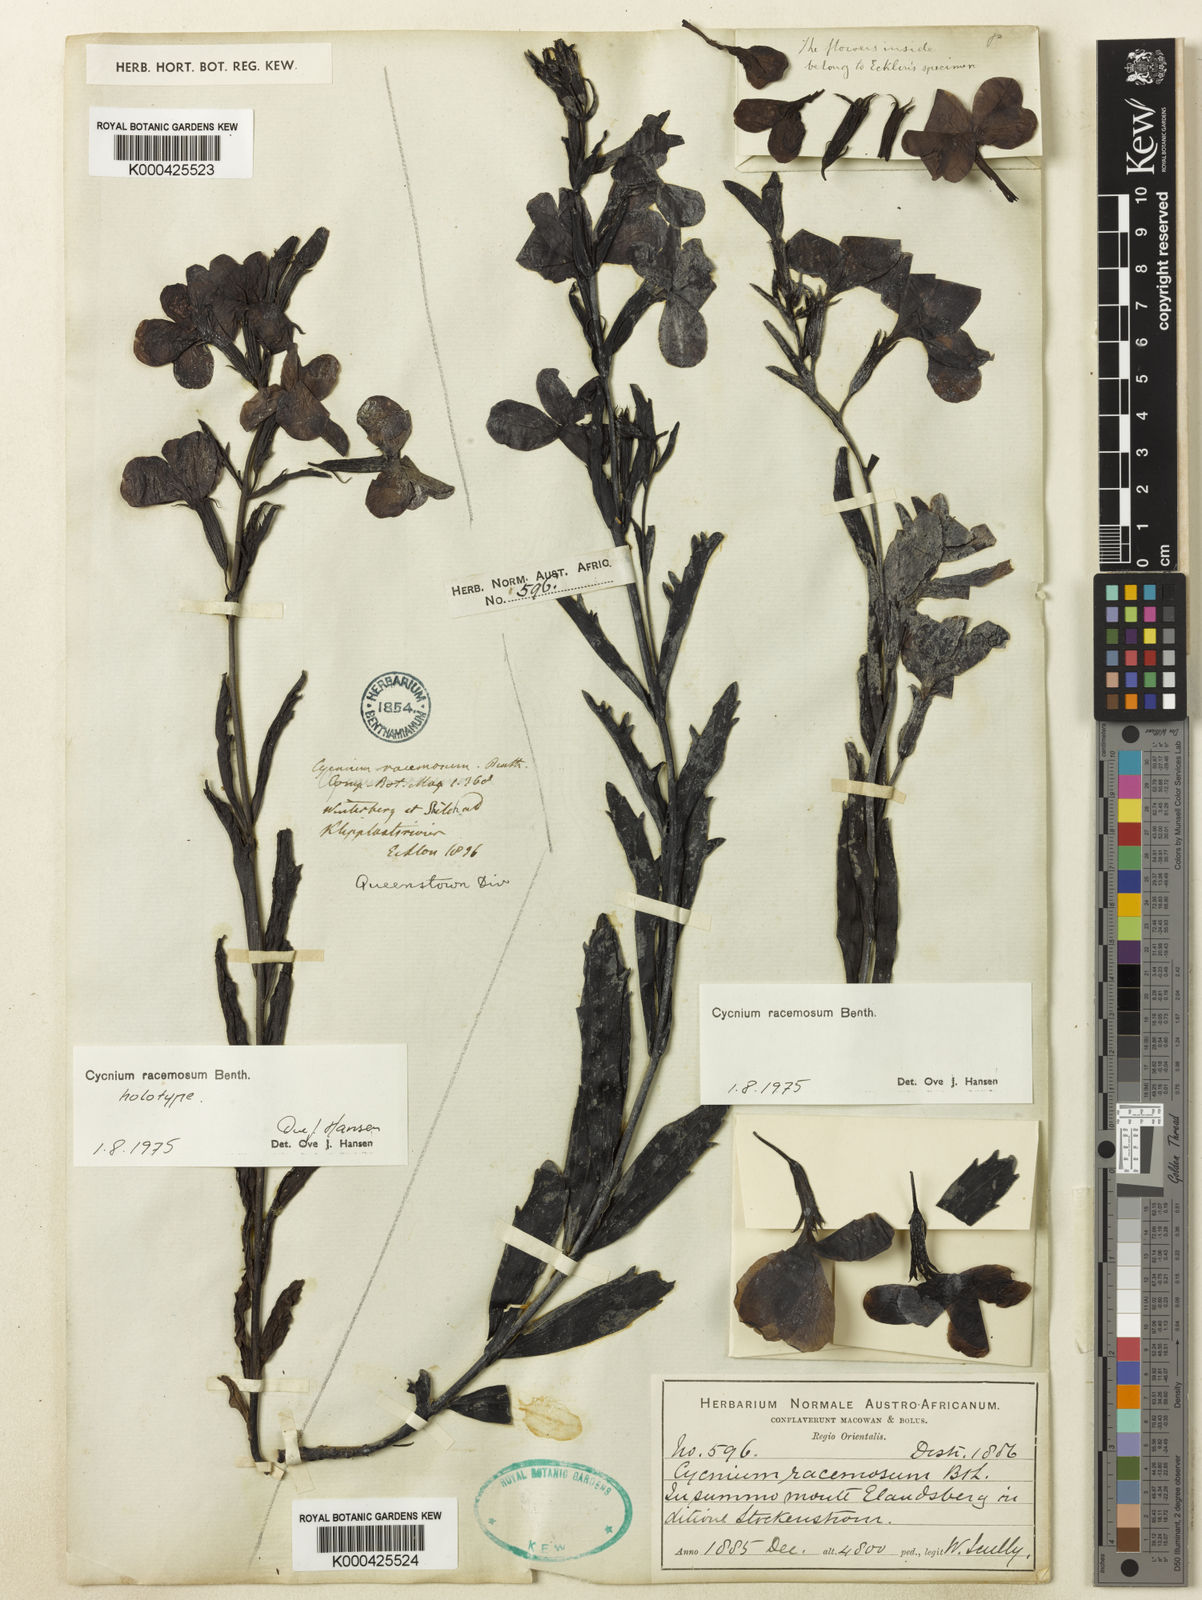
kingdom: Plantae
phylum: Tracheophyta
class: Magnoliopsida
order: Lamiales
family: Orobanchaceae
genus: Cycnium
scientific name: Cycnium racemosum
